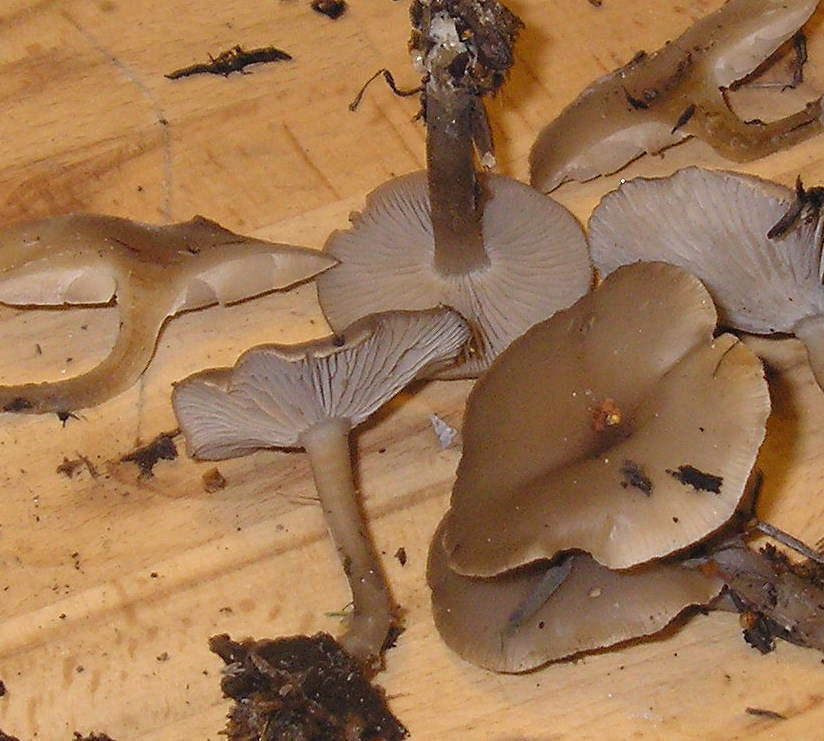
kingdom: Fungi
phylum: Basidiomycota
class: Agaricomycetes
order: Agaricales
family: Tricholomataceae
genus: Clitocybe
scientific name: Clitocybe vibecina
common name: randstribet tragthat
